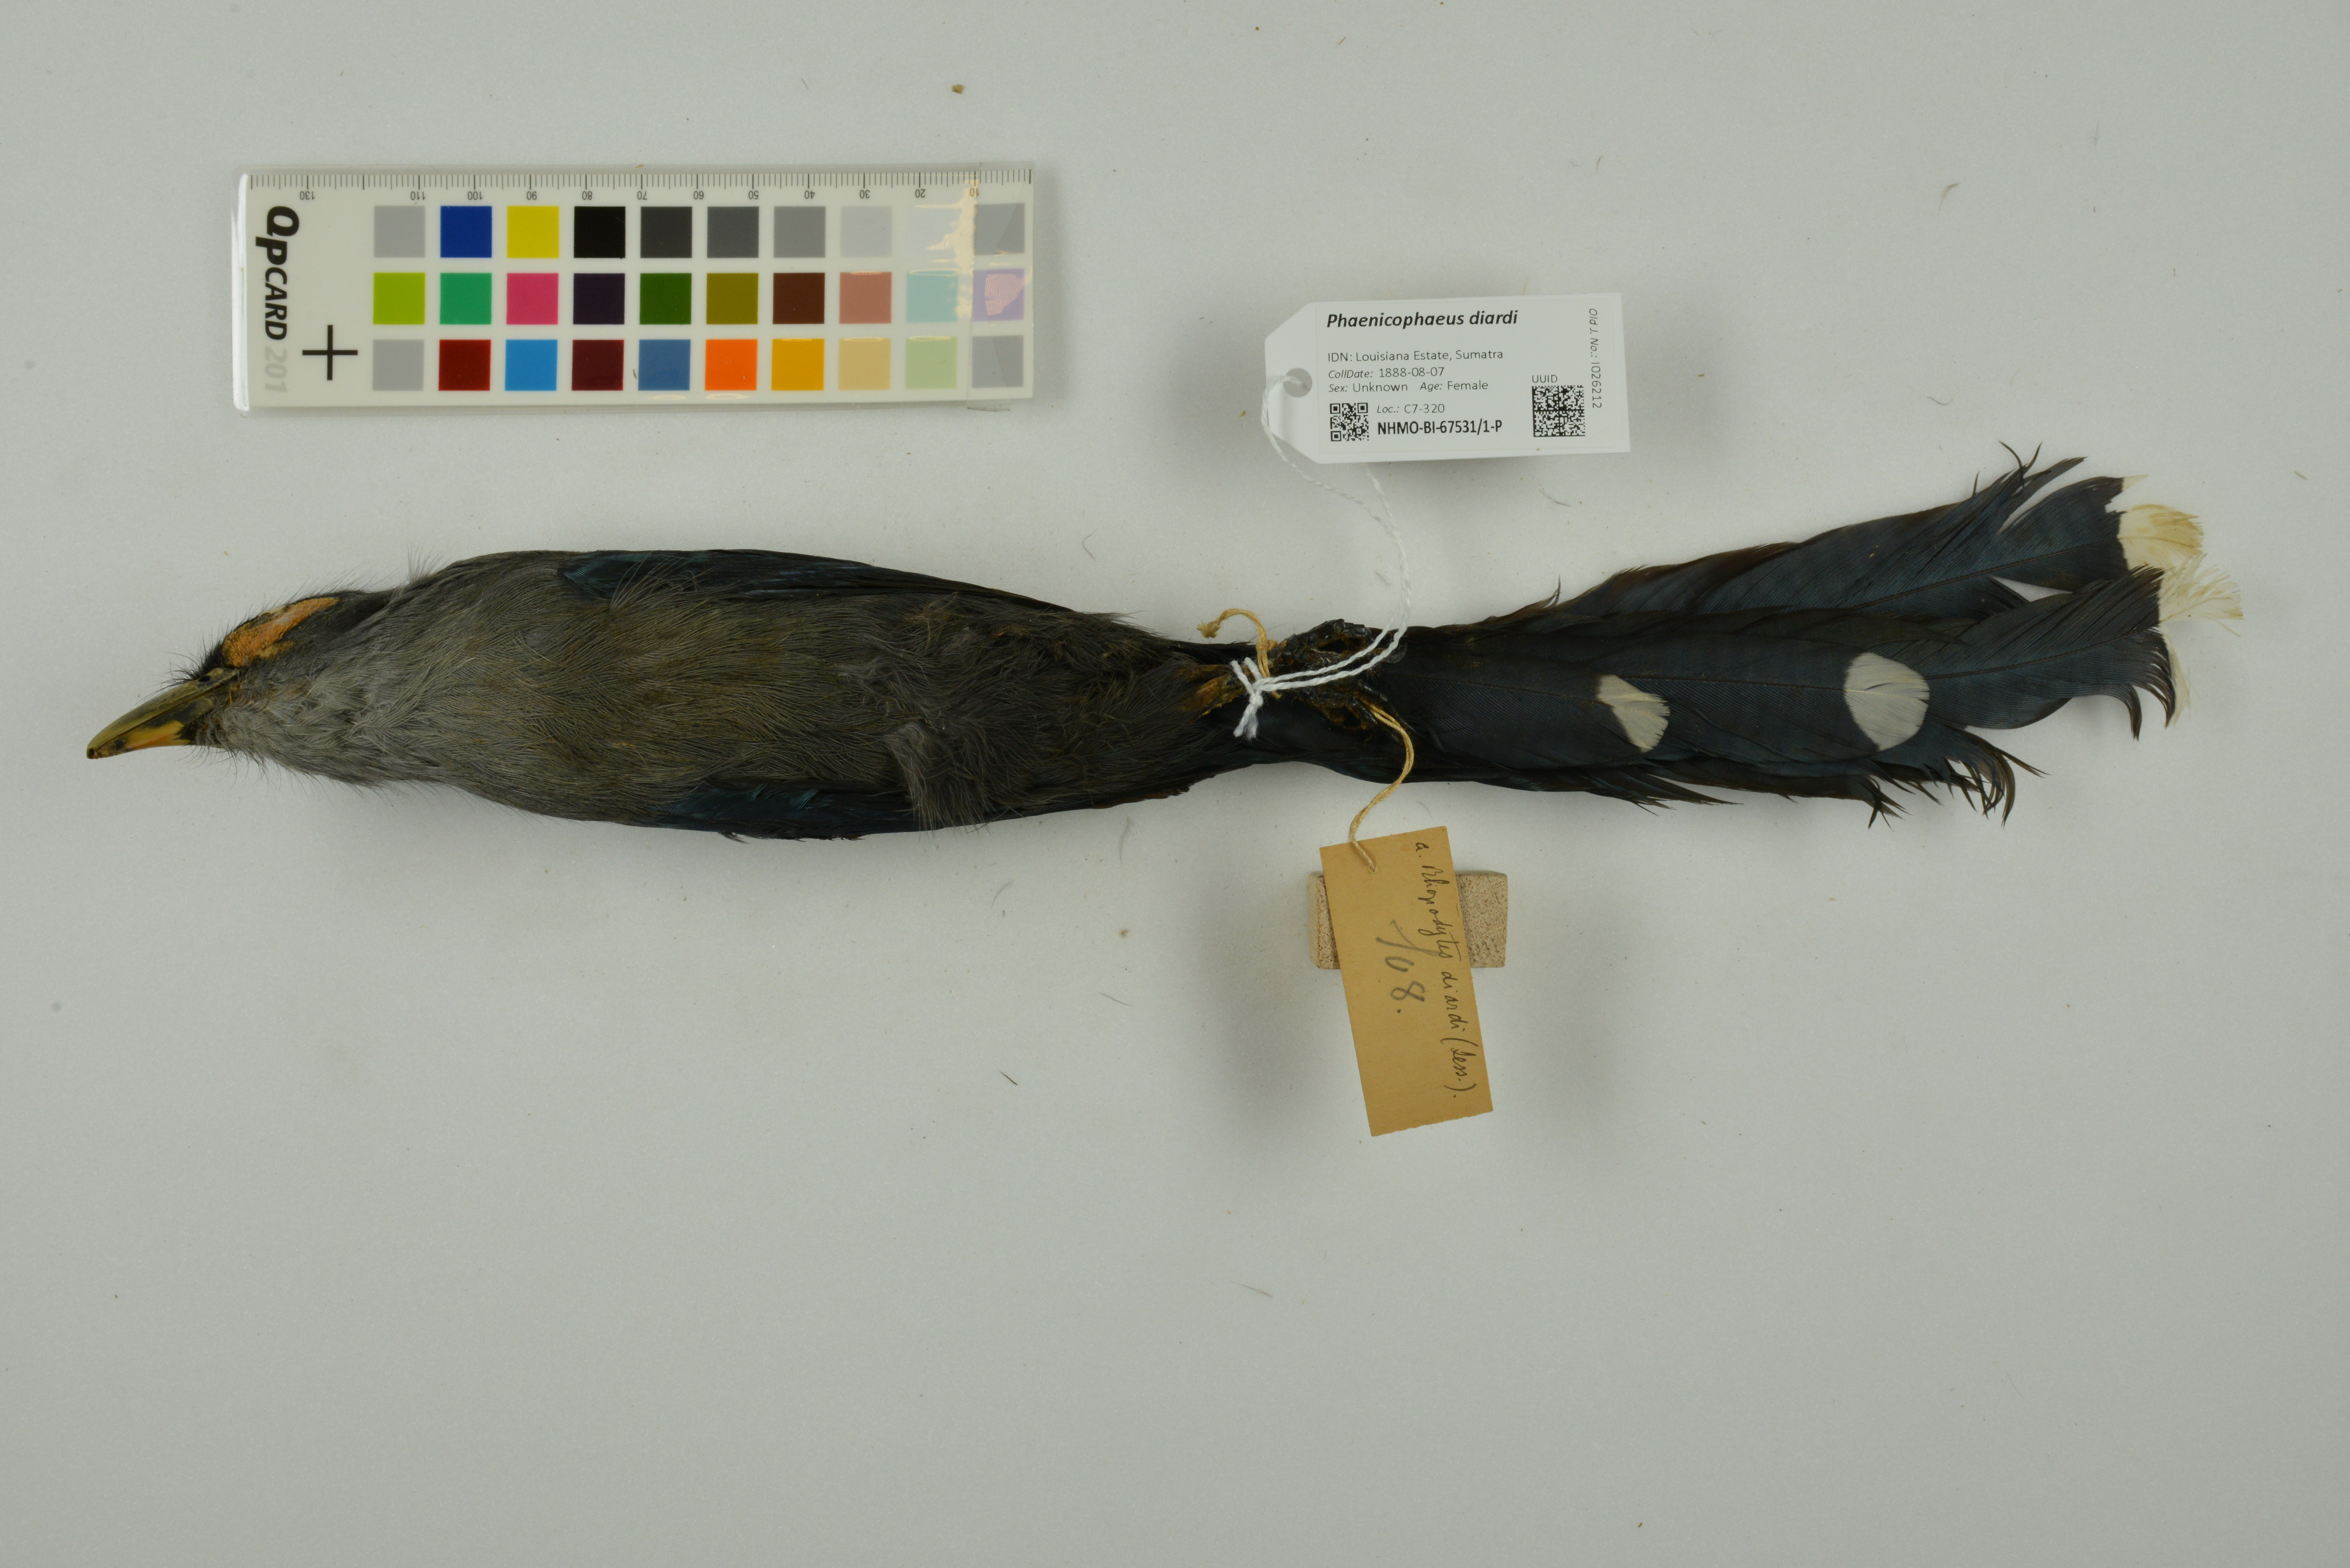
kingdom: Animalia
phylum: Chordata
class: Aves
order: Cuculiformes
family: Cuculidae
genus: Rhopodytes
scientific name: Rhopodytes diardi
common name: Lesser green-billed malcoha
